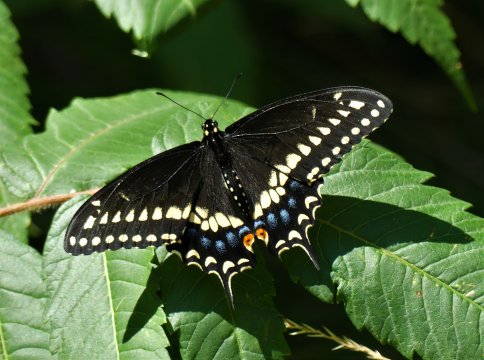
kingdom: Animalia
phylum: Arthropoda
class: Insecta
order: Lepidoptera
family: Papilionidae
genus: Papilio
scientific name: Papilio polyxenes
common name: Black Swallowtail
